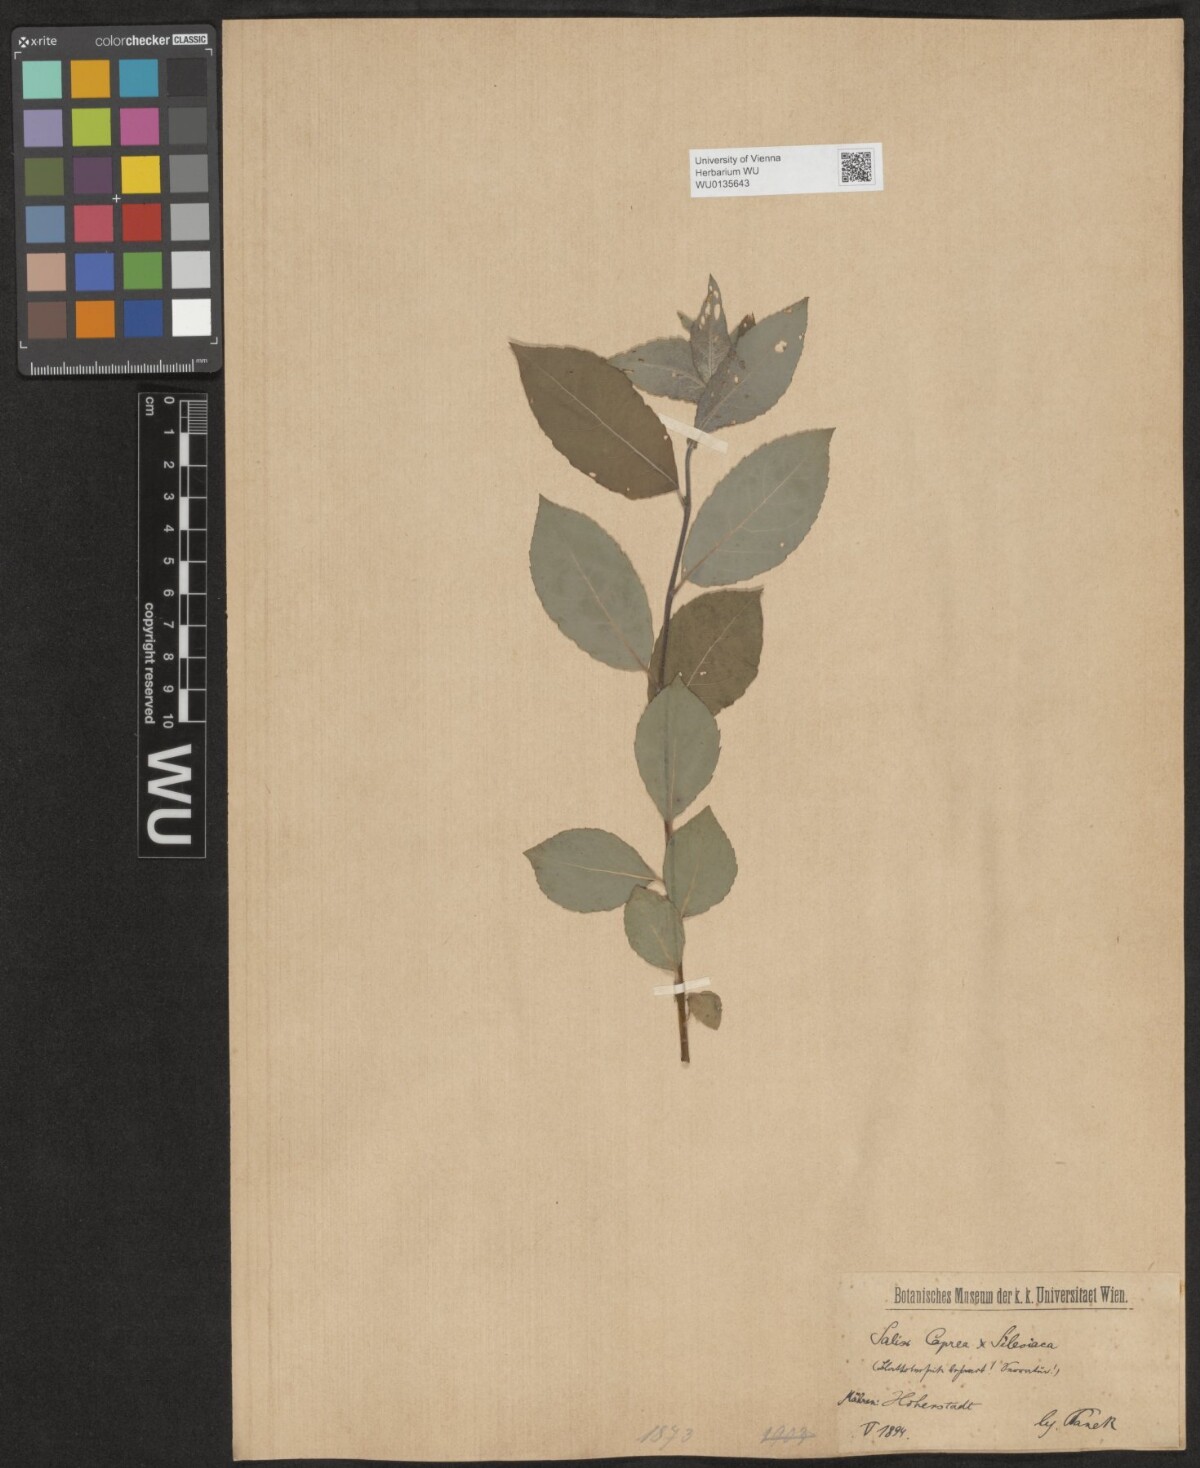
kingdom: Plantae
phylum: Tracheophyta
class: Magnoliopsida
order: Malpighiales
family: Salicaceae
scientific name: Salicaceae
